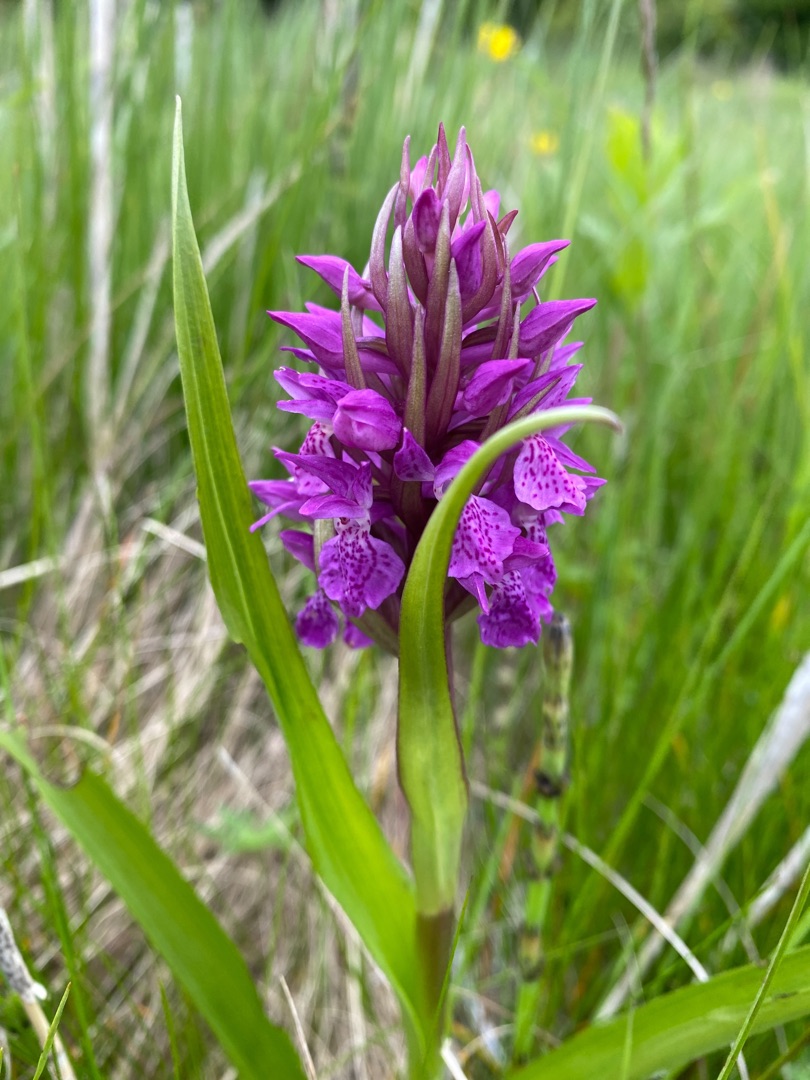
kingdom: Plantae
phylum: Tracheophyta
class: Liliopsida
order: Asparagales
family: Orchidaceae
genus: Dactylorhiza
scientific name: Dactylorhiza majalis
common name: Purpur-gøgeurt
